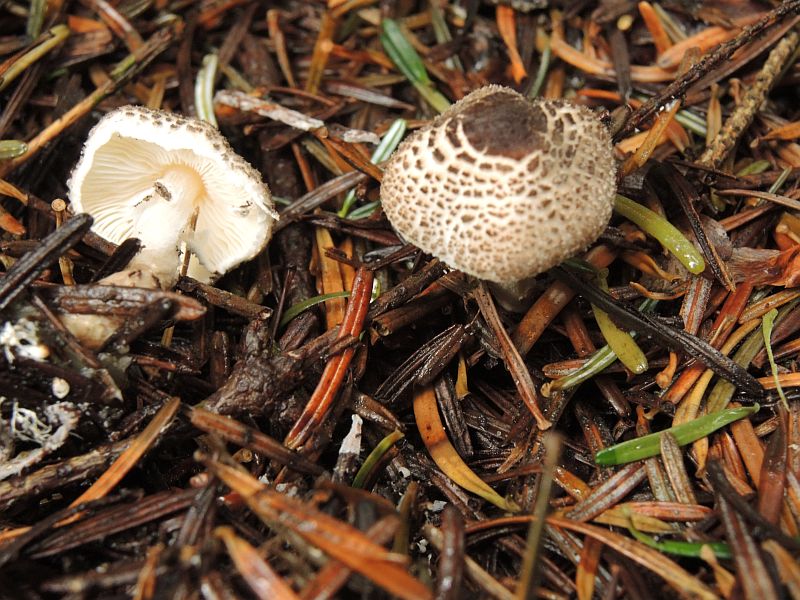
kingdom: Fungi
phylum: Basidiomycota
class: Agaricomycetes
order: Agaricales
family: Agaricaceae
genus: Lepiota
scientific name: Lepiota felina
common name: sortskællet parasolhat
